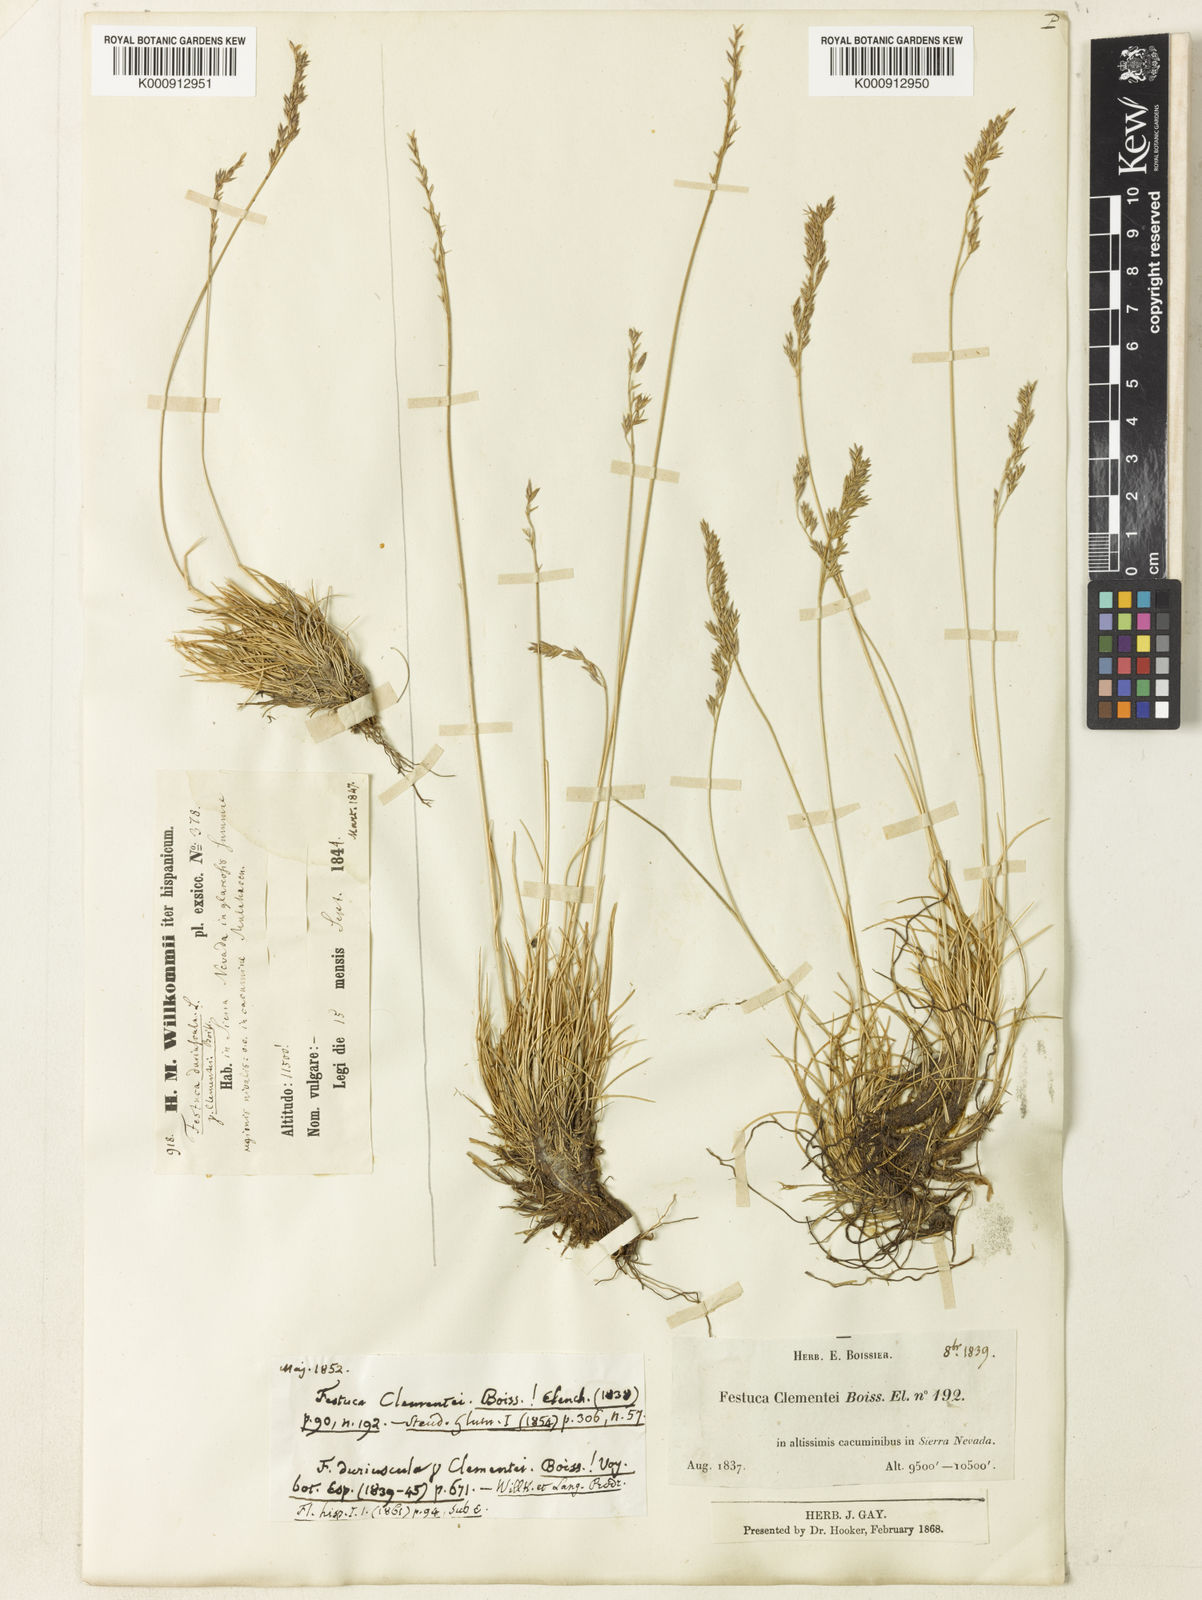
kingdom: Plantae
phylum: Tracheophyta
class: Liliopsida
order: Poales
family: Poaceae
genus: Festuca
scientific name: Festuca clementei
